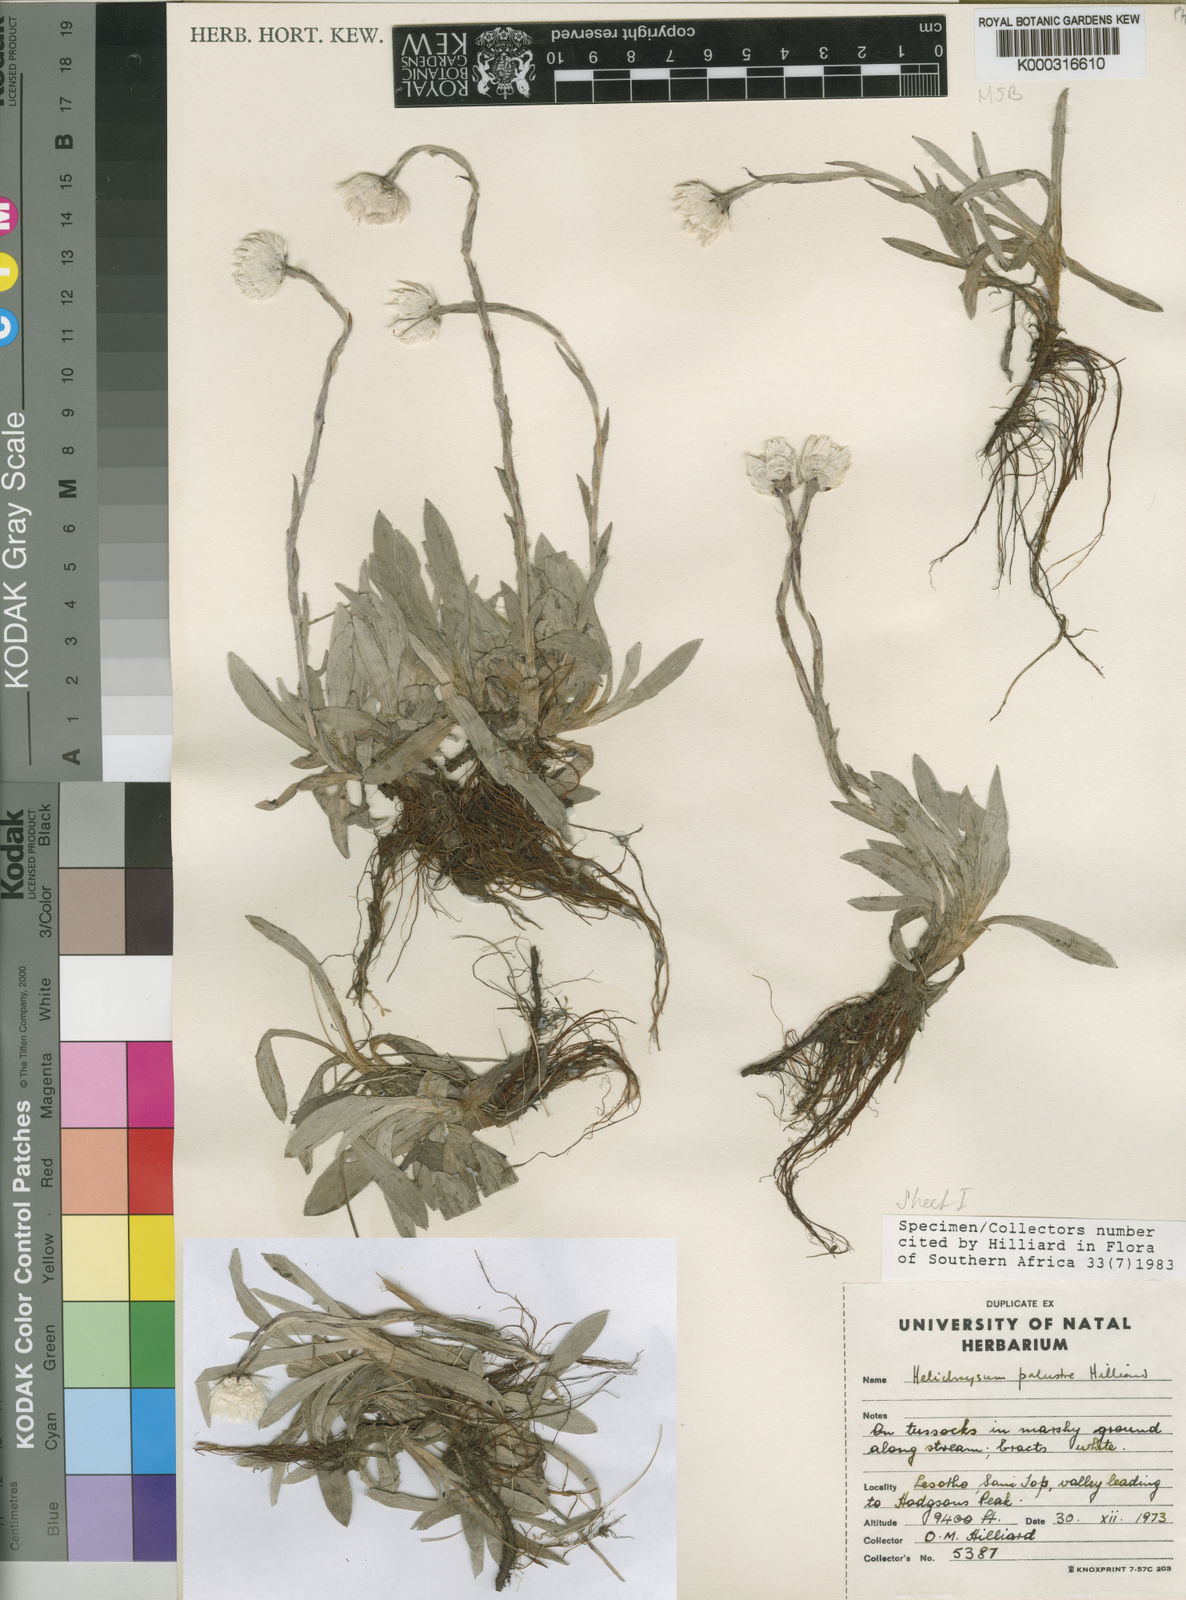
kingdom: Plantae
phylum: Tracheophyta
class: Magnoliopsida
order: Asterales
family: Asteraceae
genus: Helichrysum
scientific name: Helichrysum palustre
